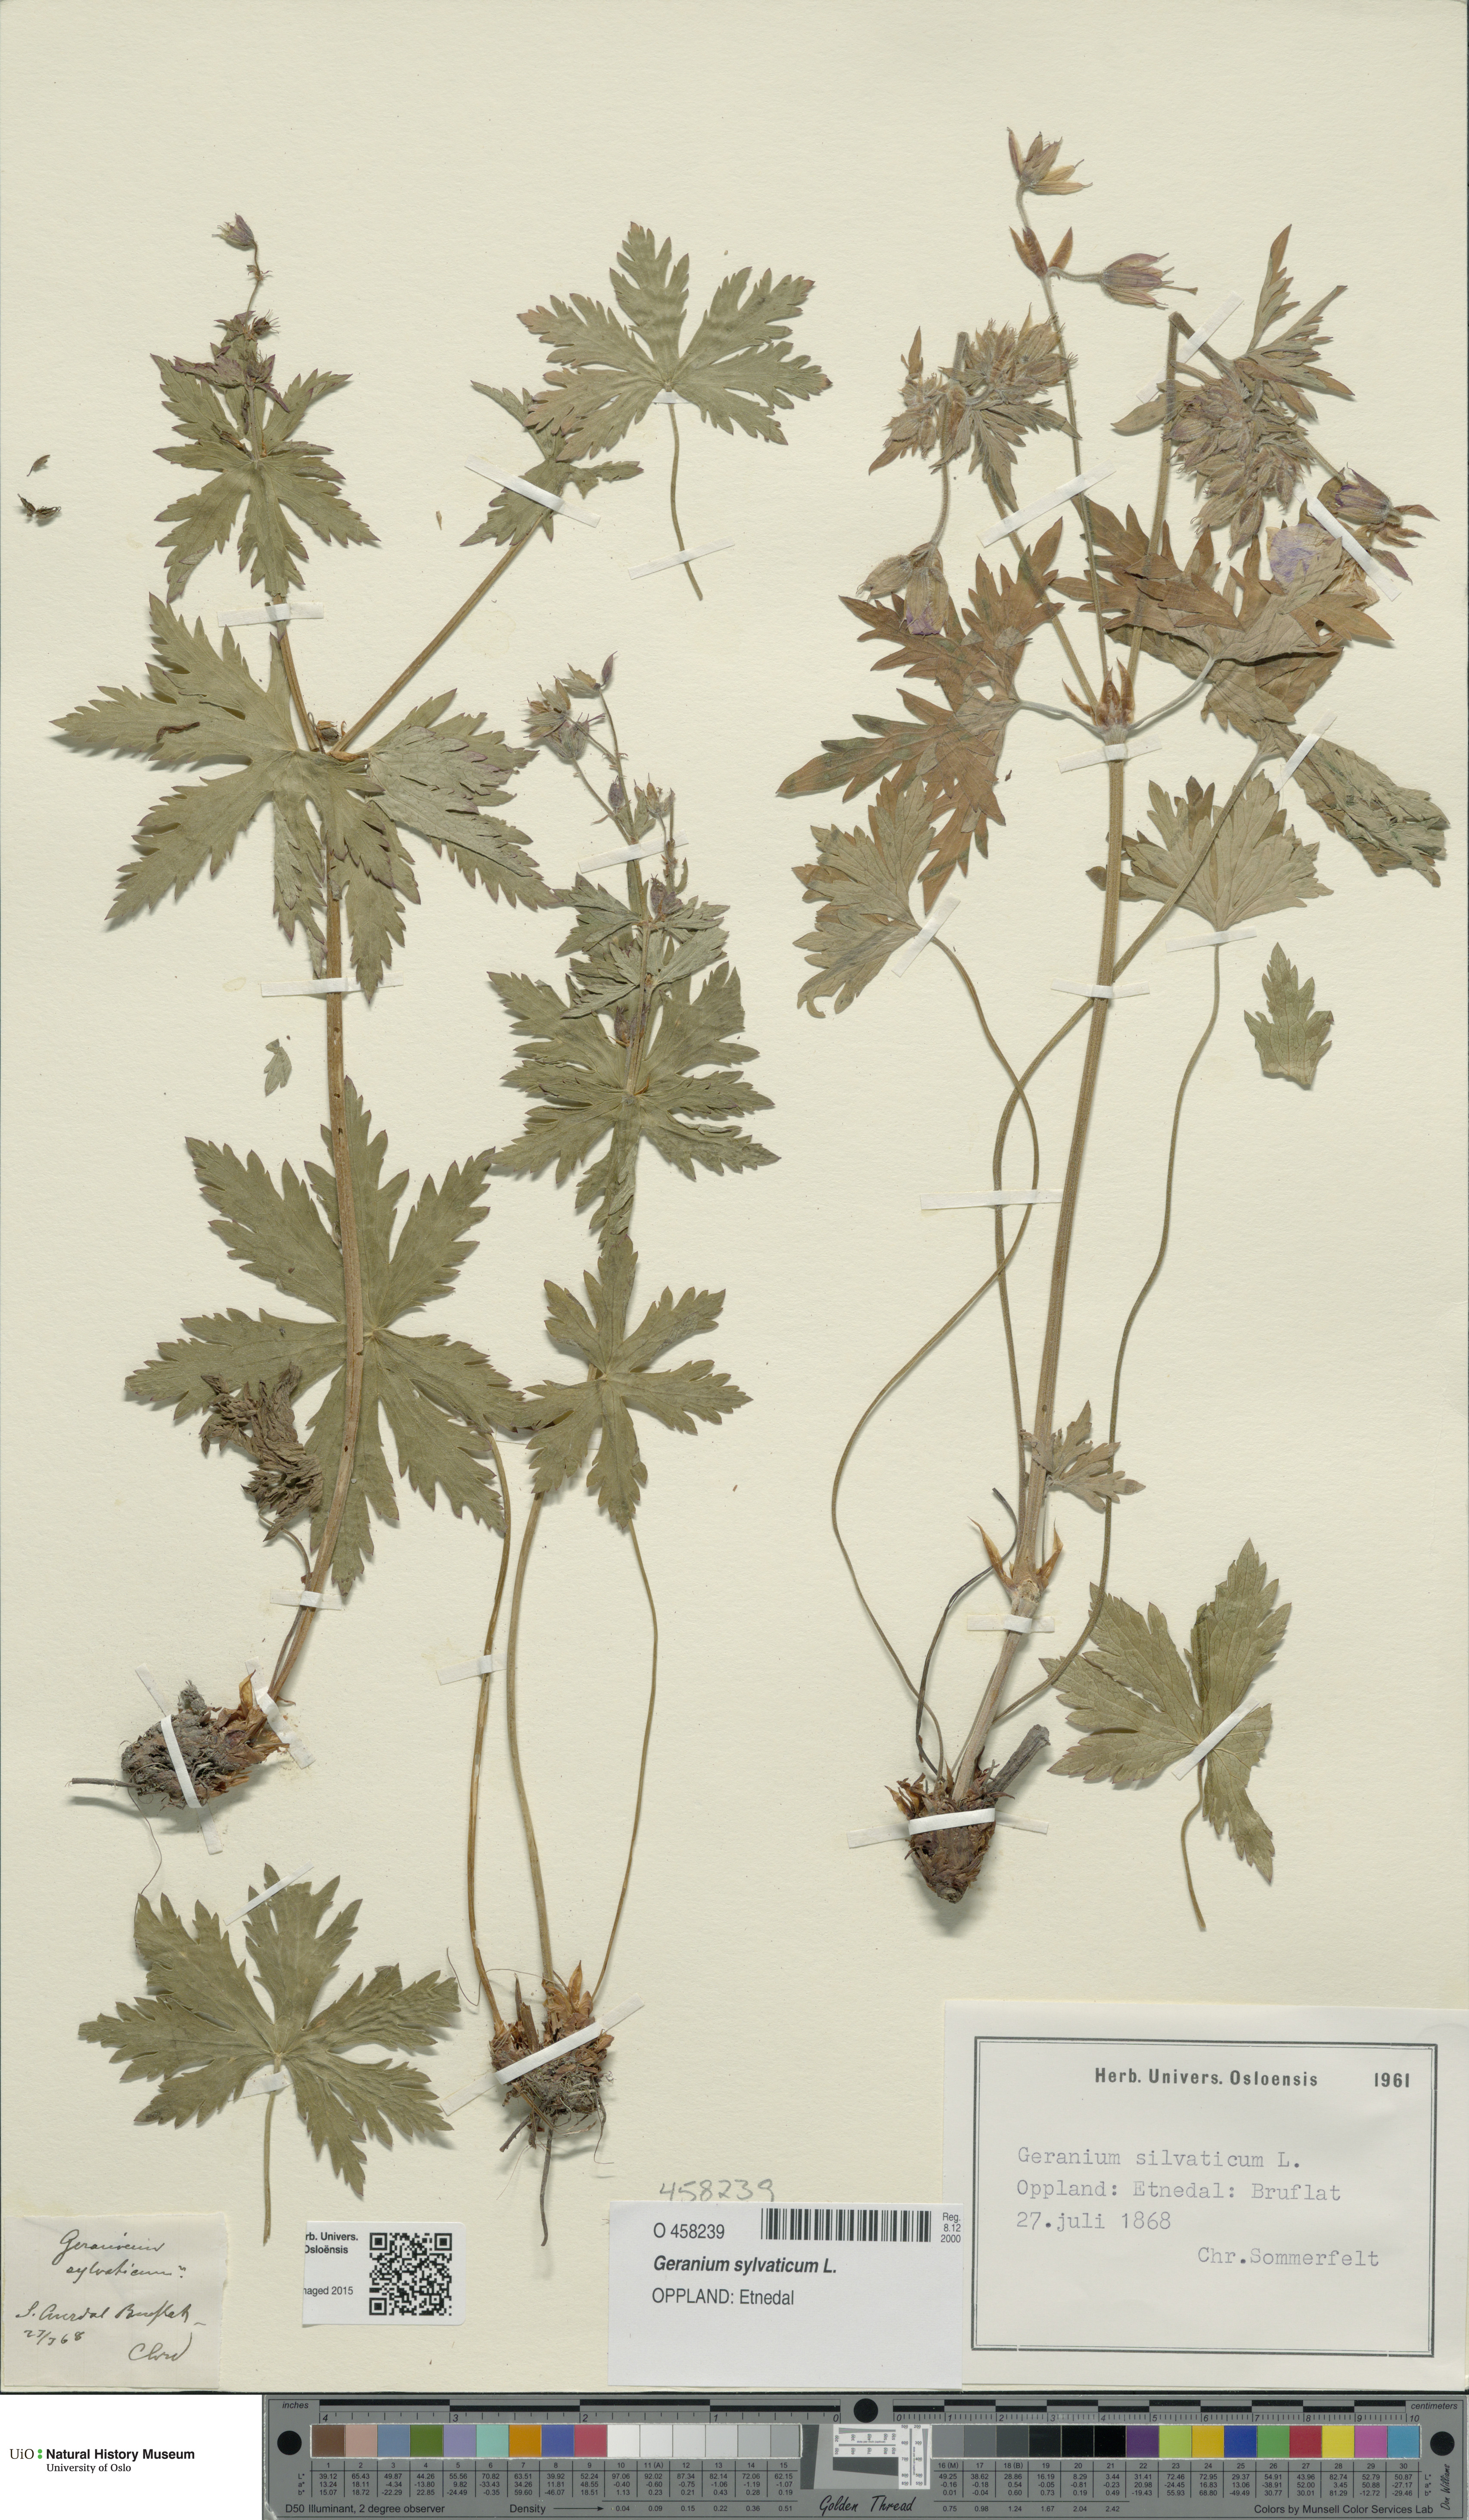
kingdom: Plantae
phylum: Tracheophyta
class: Magnoliopsida
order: Geraniales
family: Geraniaceae
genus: Geranium
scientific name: Geranium sylvaticum
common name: Wood crane's-bill
